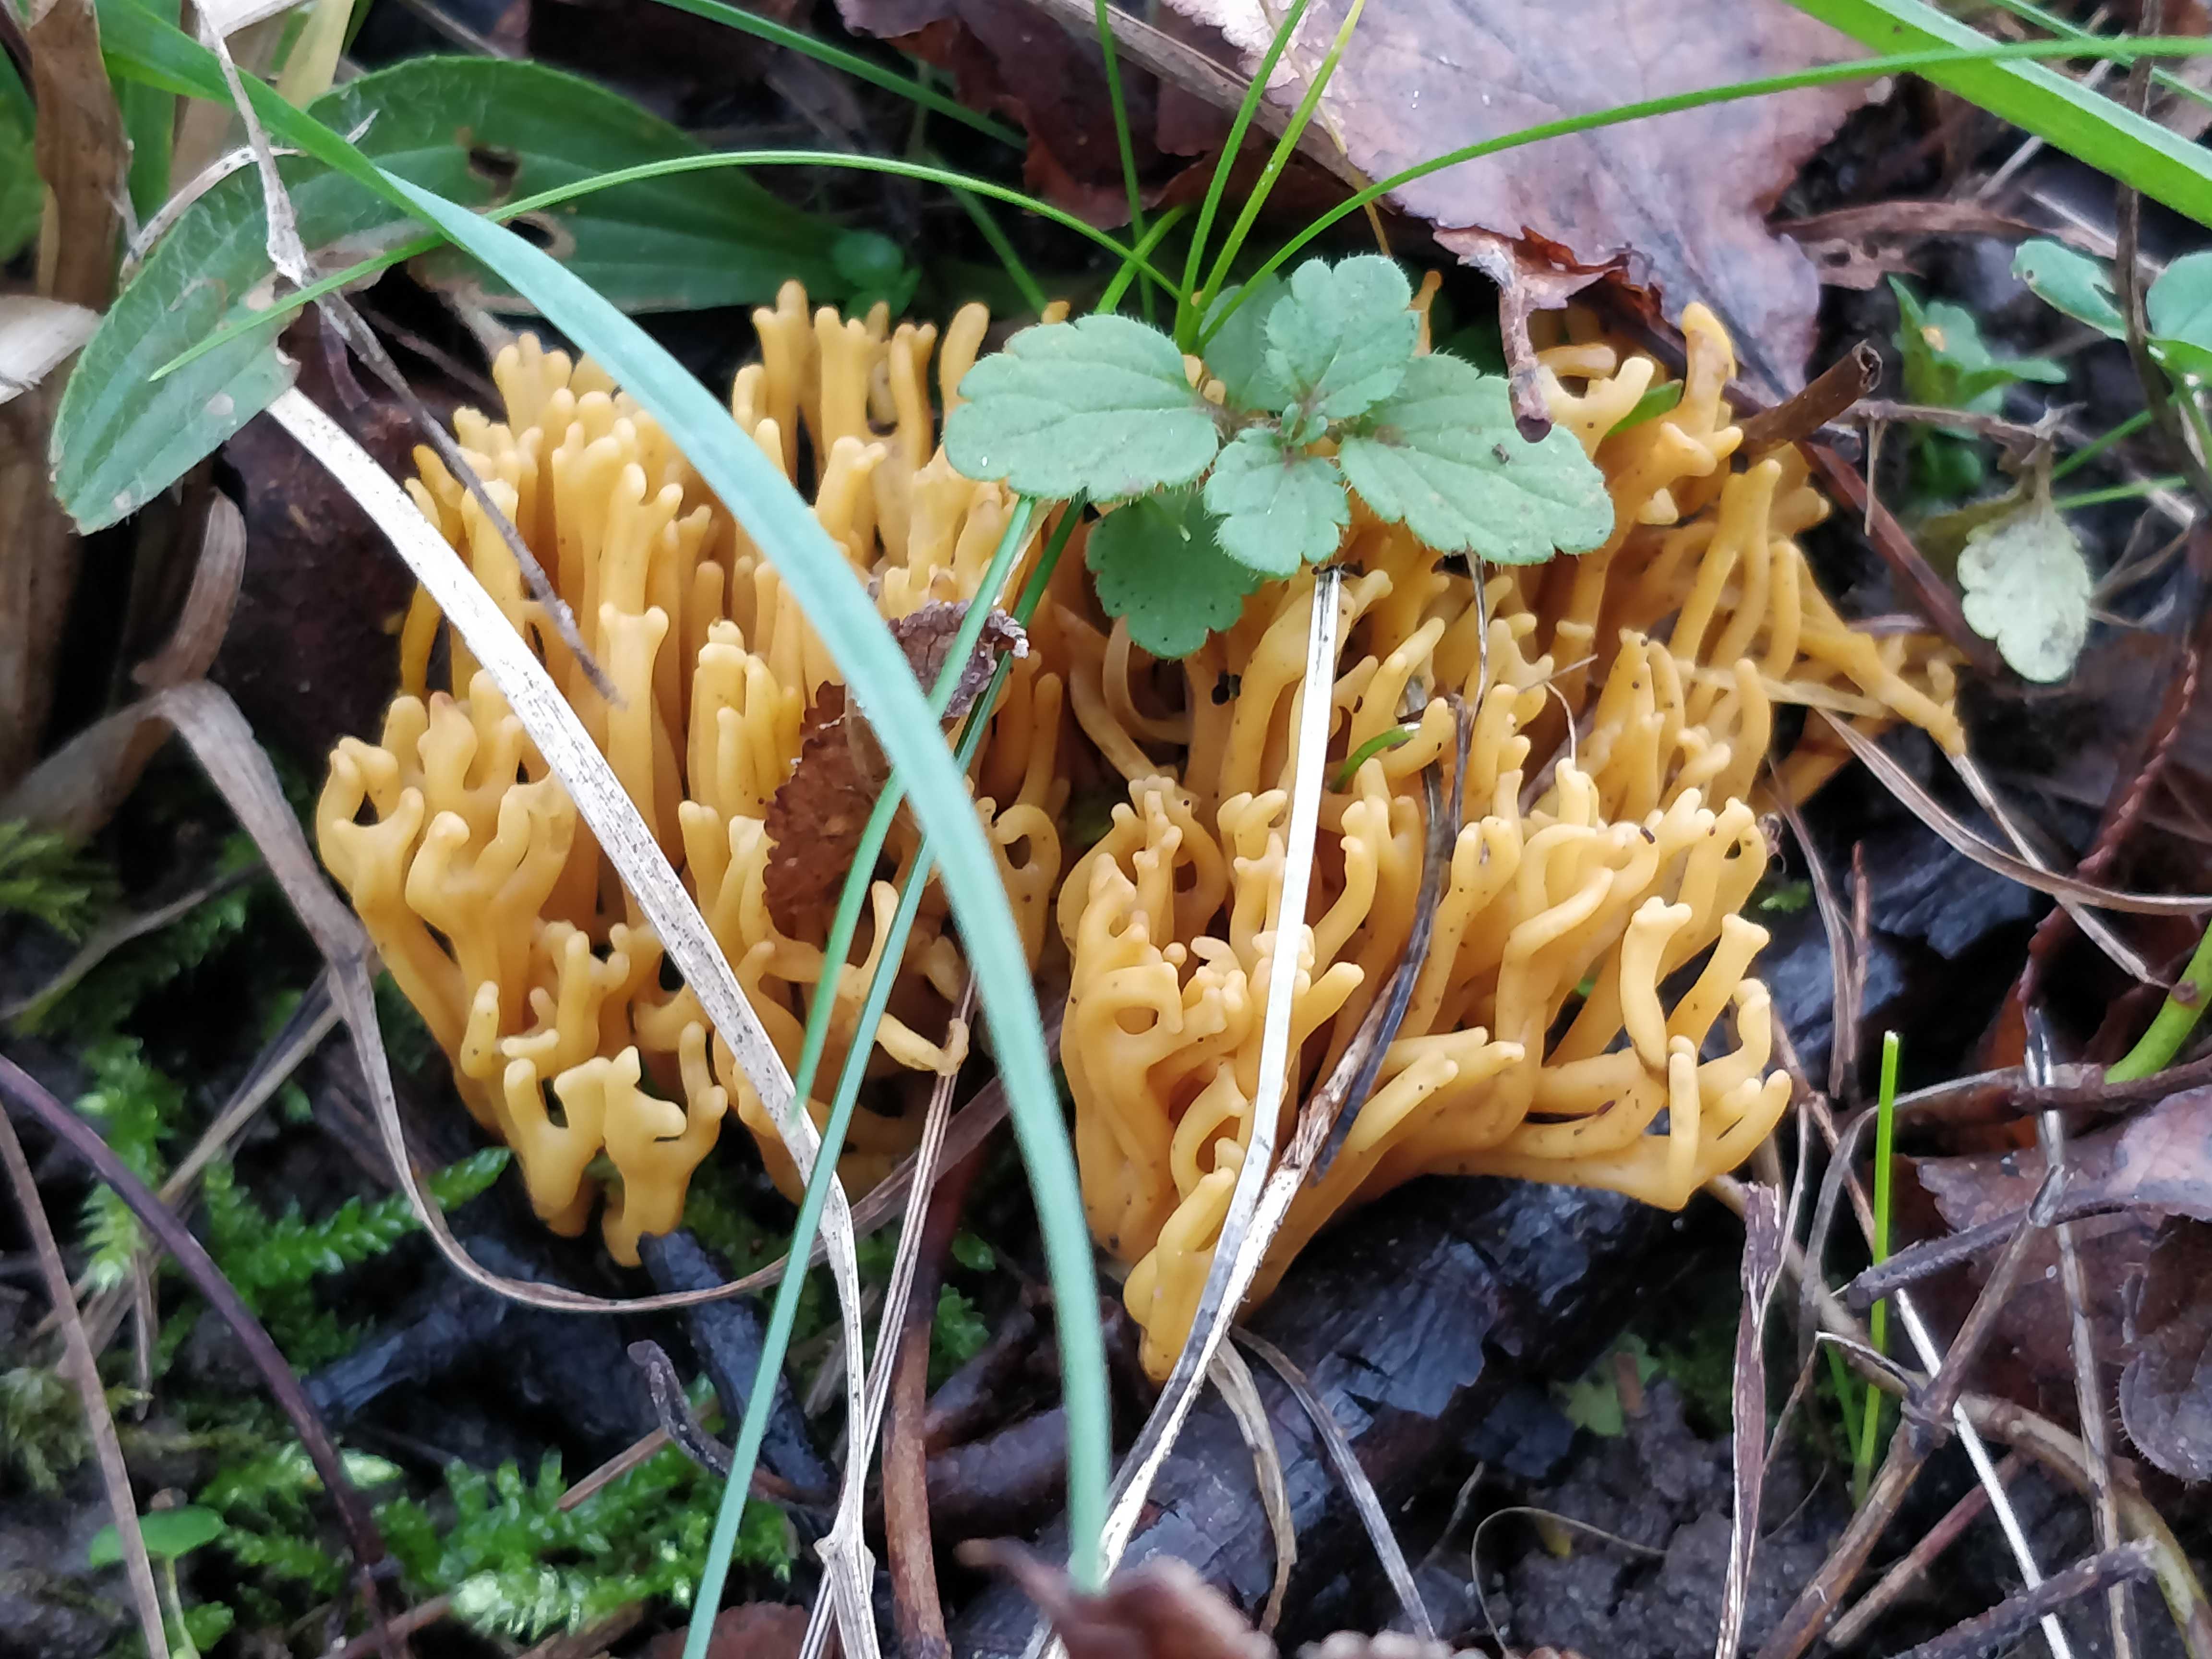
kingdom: Fungi
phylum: Basidiomycota
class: Agaricomycetes
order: Agaricales
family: Clavariaceae
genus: Clavulinopsis
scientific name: Clavulinopsis corniculata
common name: eng-køllesvamp
